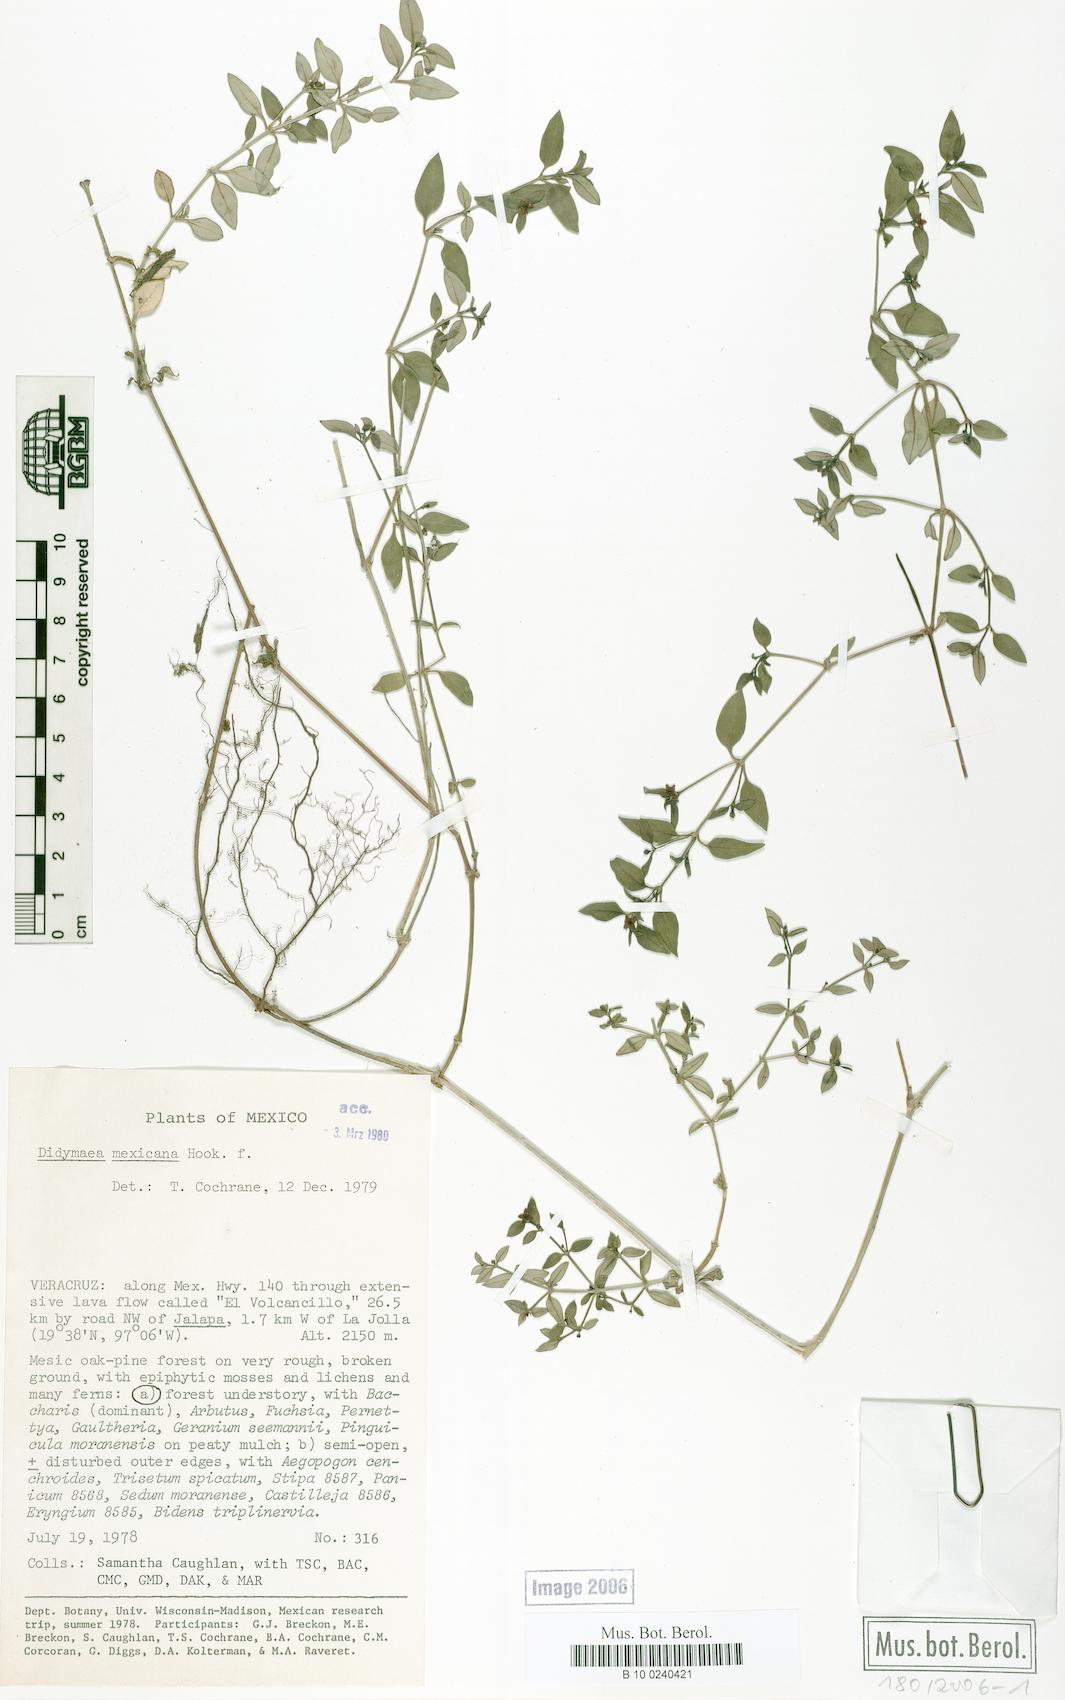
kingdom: Plantae
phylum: Tracheophyta
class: Magnoliopsida
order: Gentianales
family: Rubiaceae
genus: Didymaea
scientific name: Didymaea mexicana
